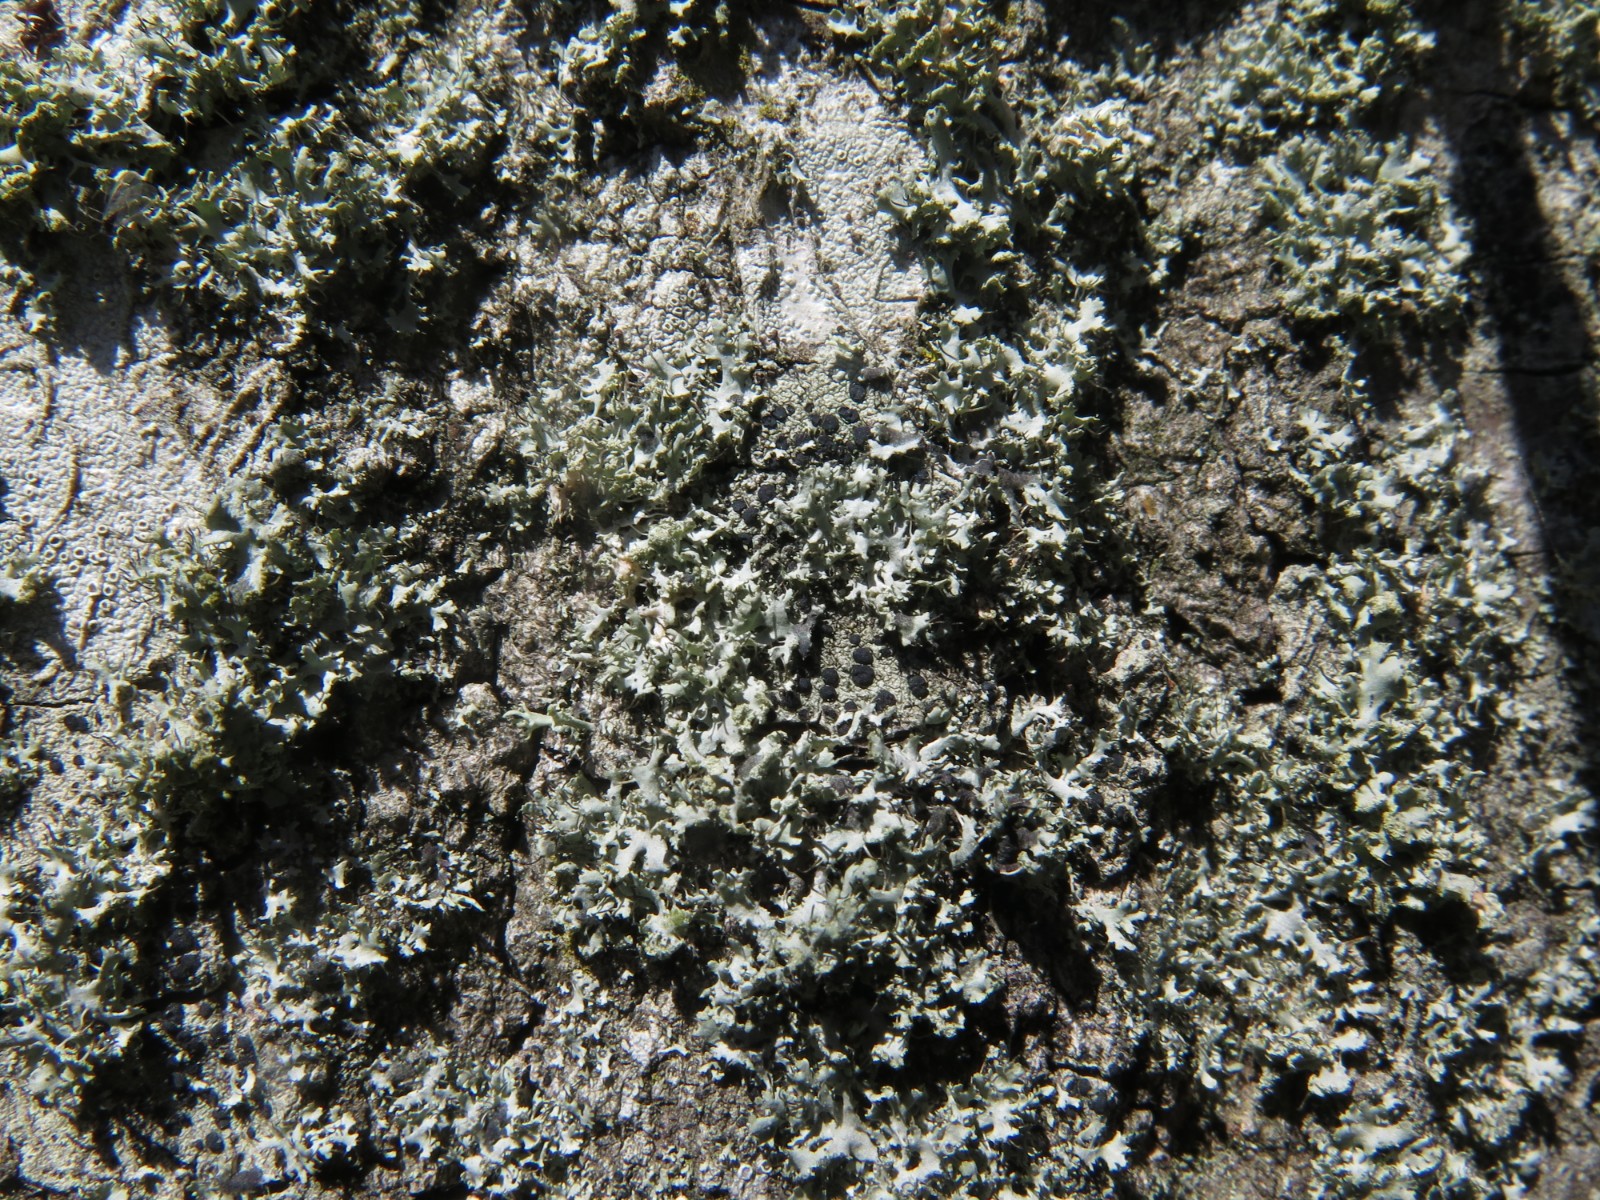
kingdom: Fungi
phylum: Ascomycota
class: Lecanoromycetes
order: Caliciales
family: Physciaceae
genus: Physcia
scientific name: Physcia tenella
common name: spæd rosetlav
